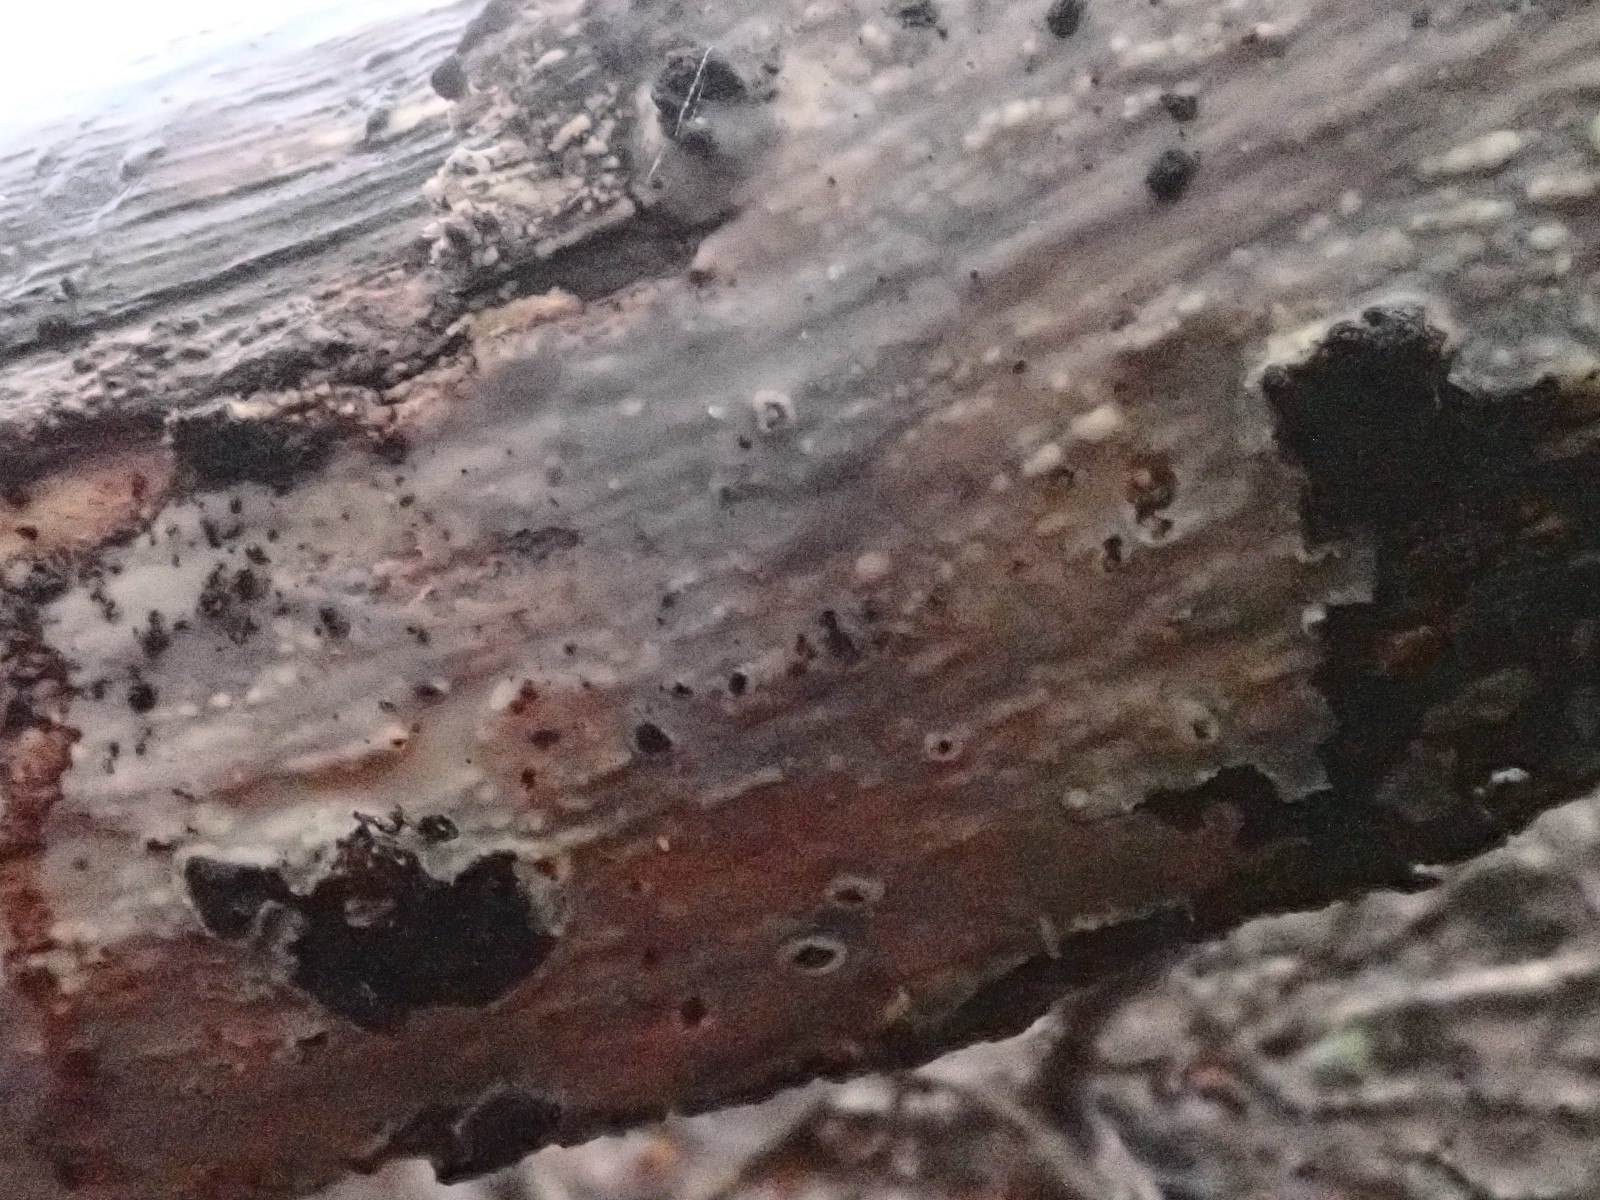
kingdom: Fungi
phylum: Basidiomycota
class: Agaricomycetes
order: Corticiales
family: Vuilleminiaceae
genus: Vuilleminia
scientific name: Vuilleminia comedens
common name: almindelig barksprænger
